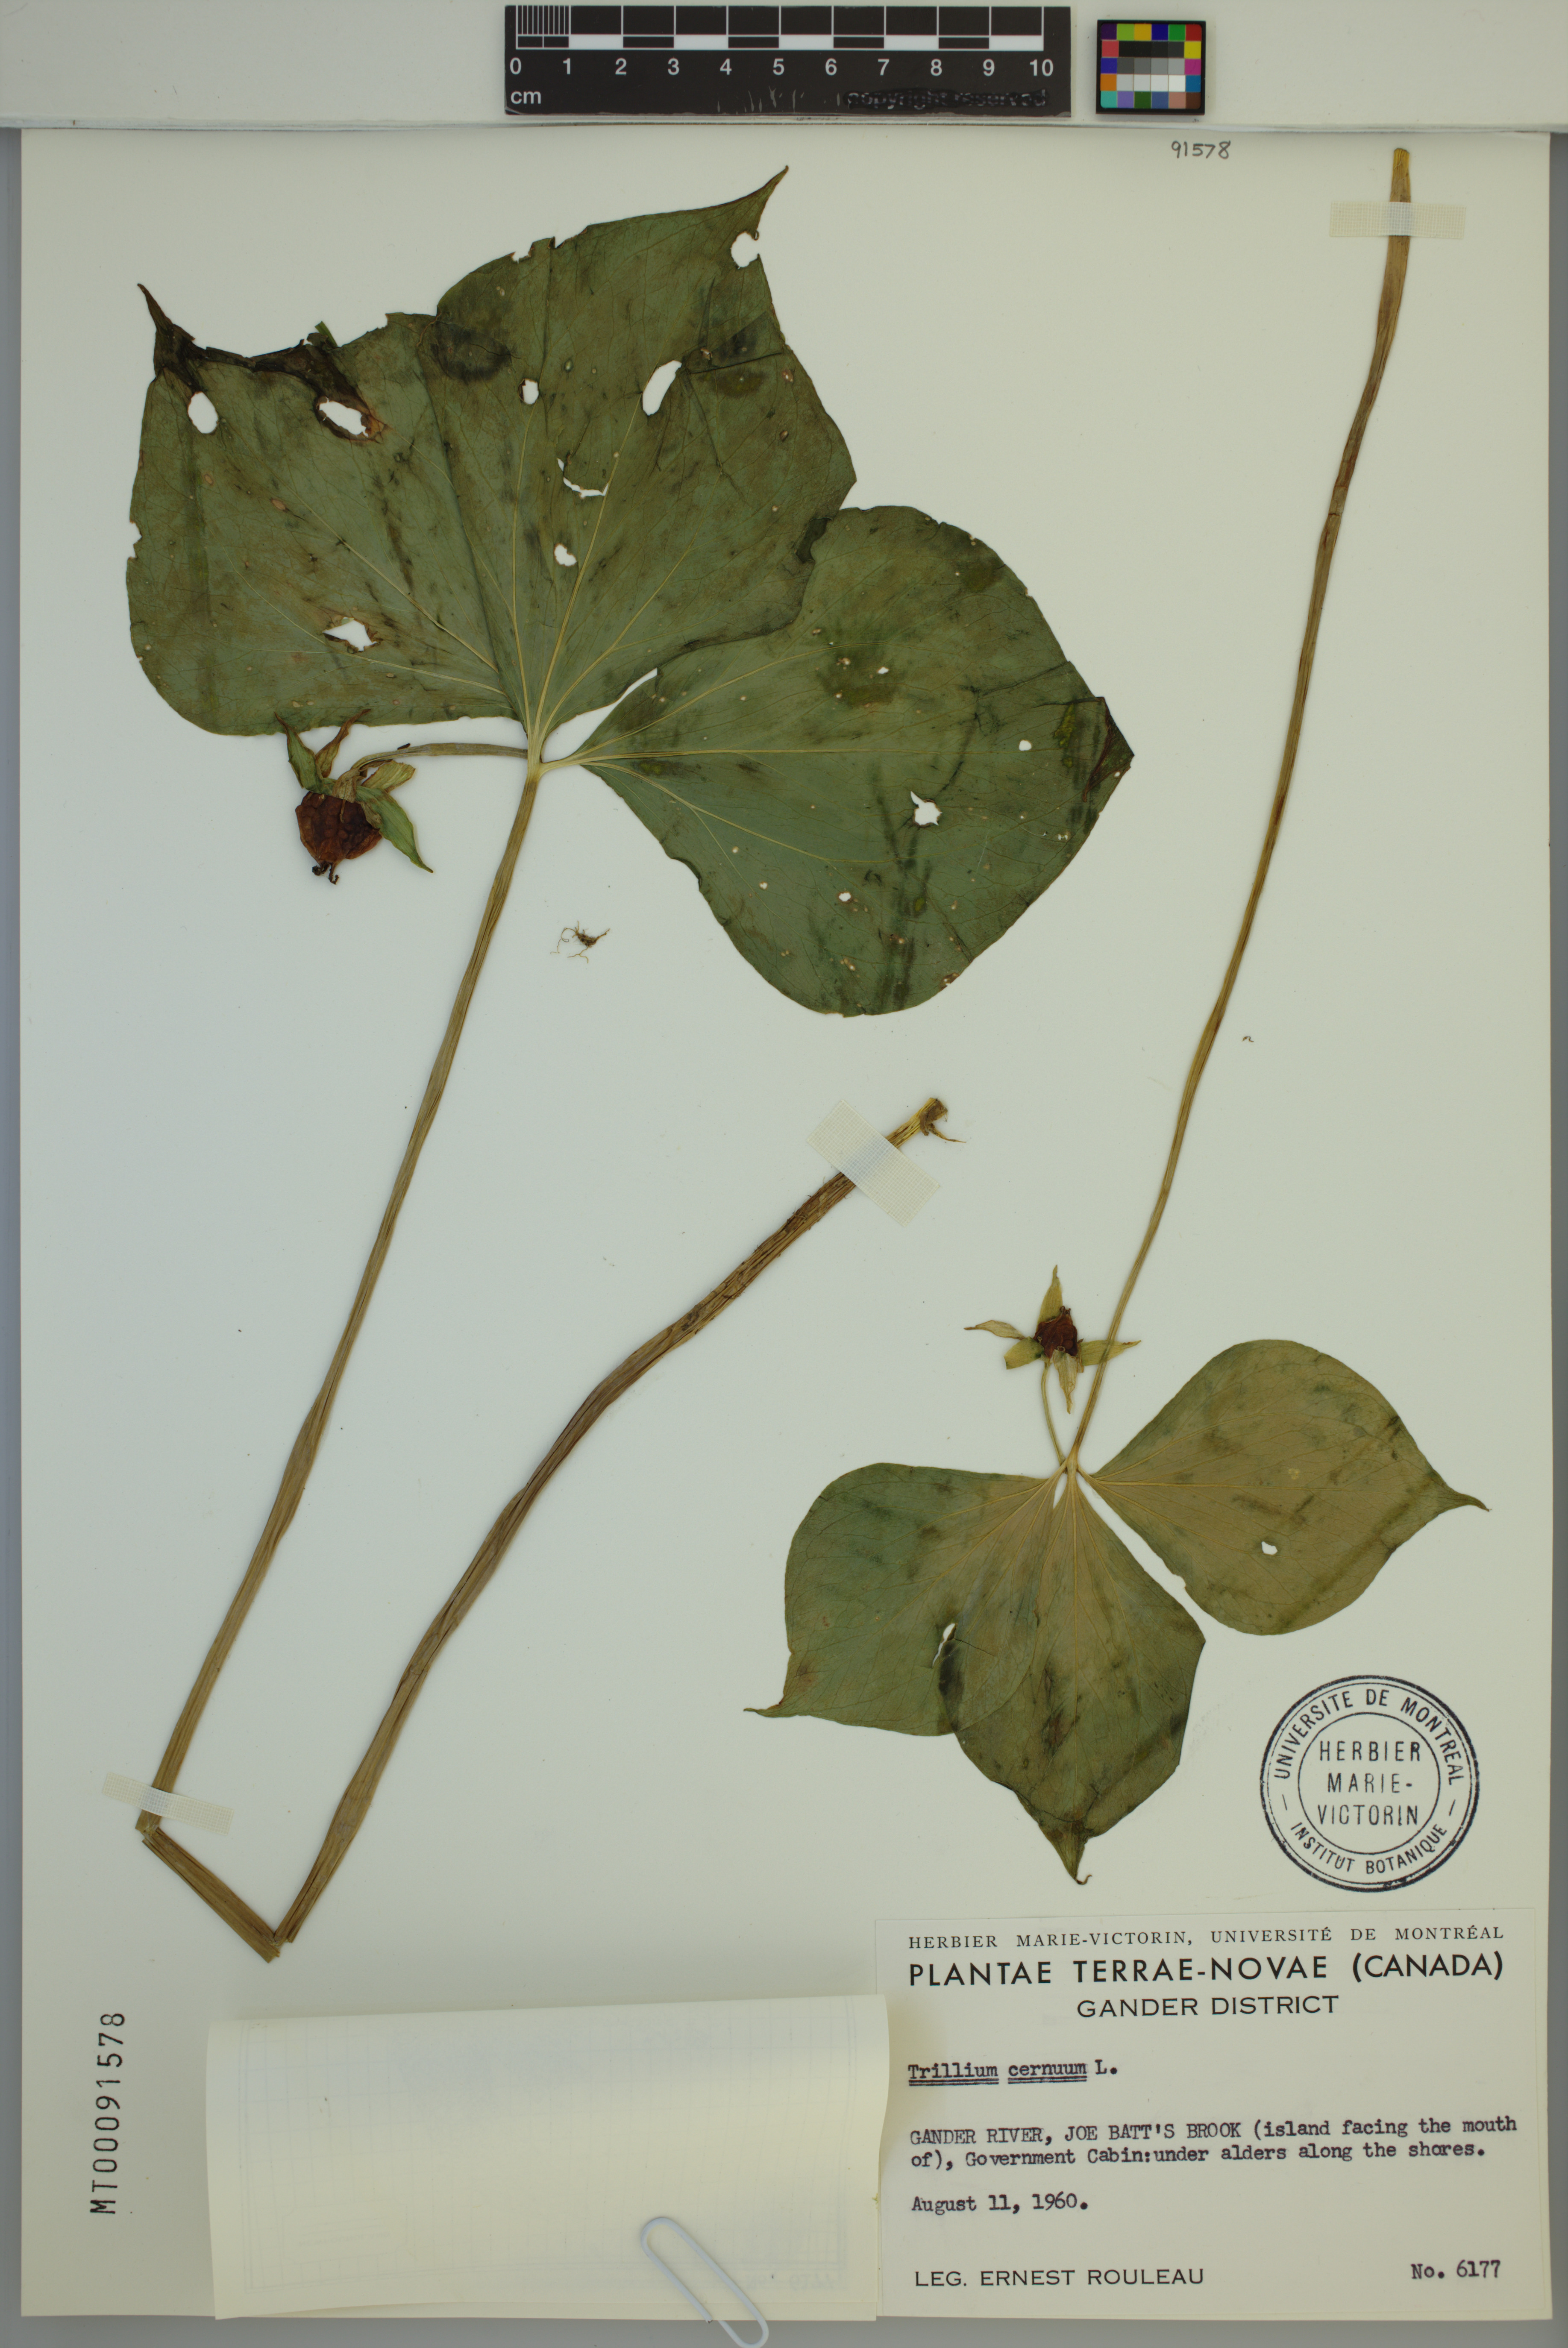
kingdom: Plantae
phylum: Tracheophyta
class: Liliopsida
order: Liliales
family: Melanthiaceae
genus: Trillium
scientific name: Trillium cernuum
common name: Nodding trillium
